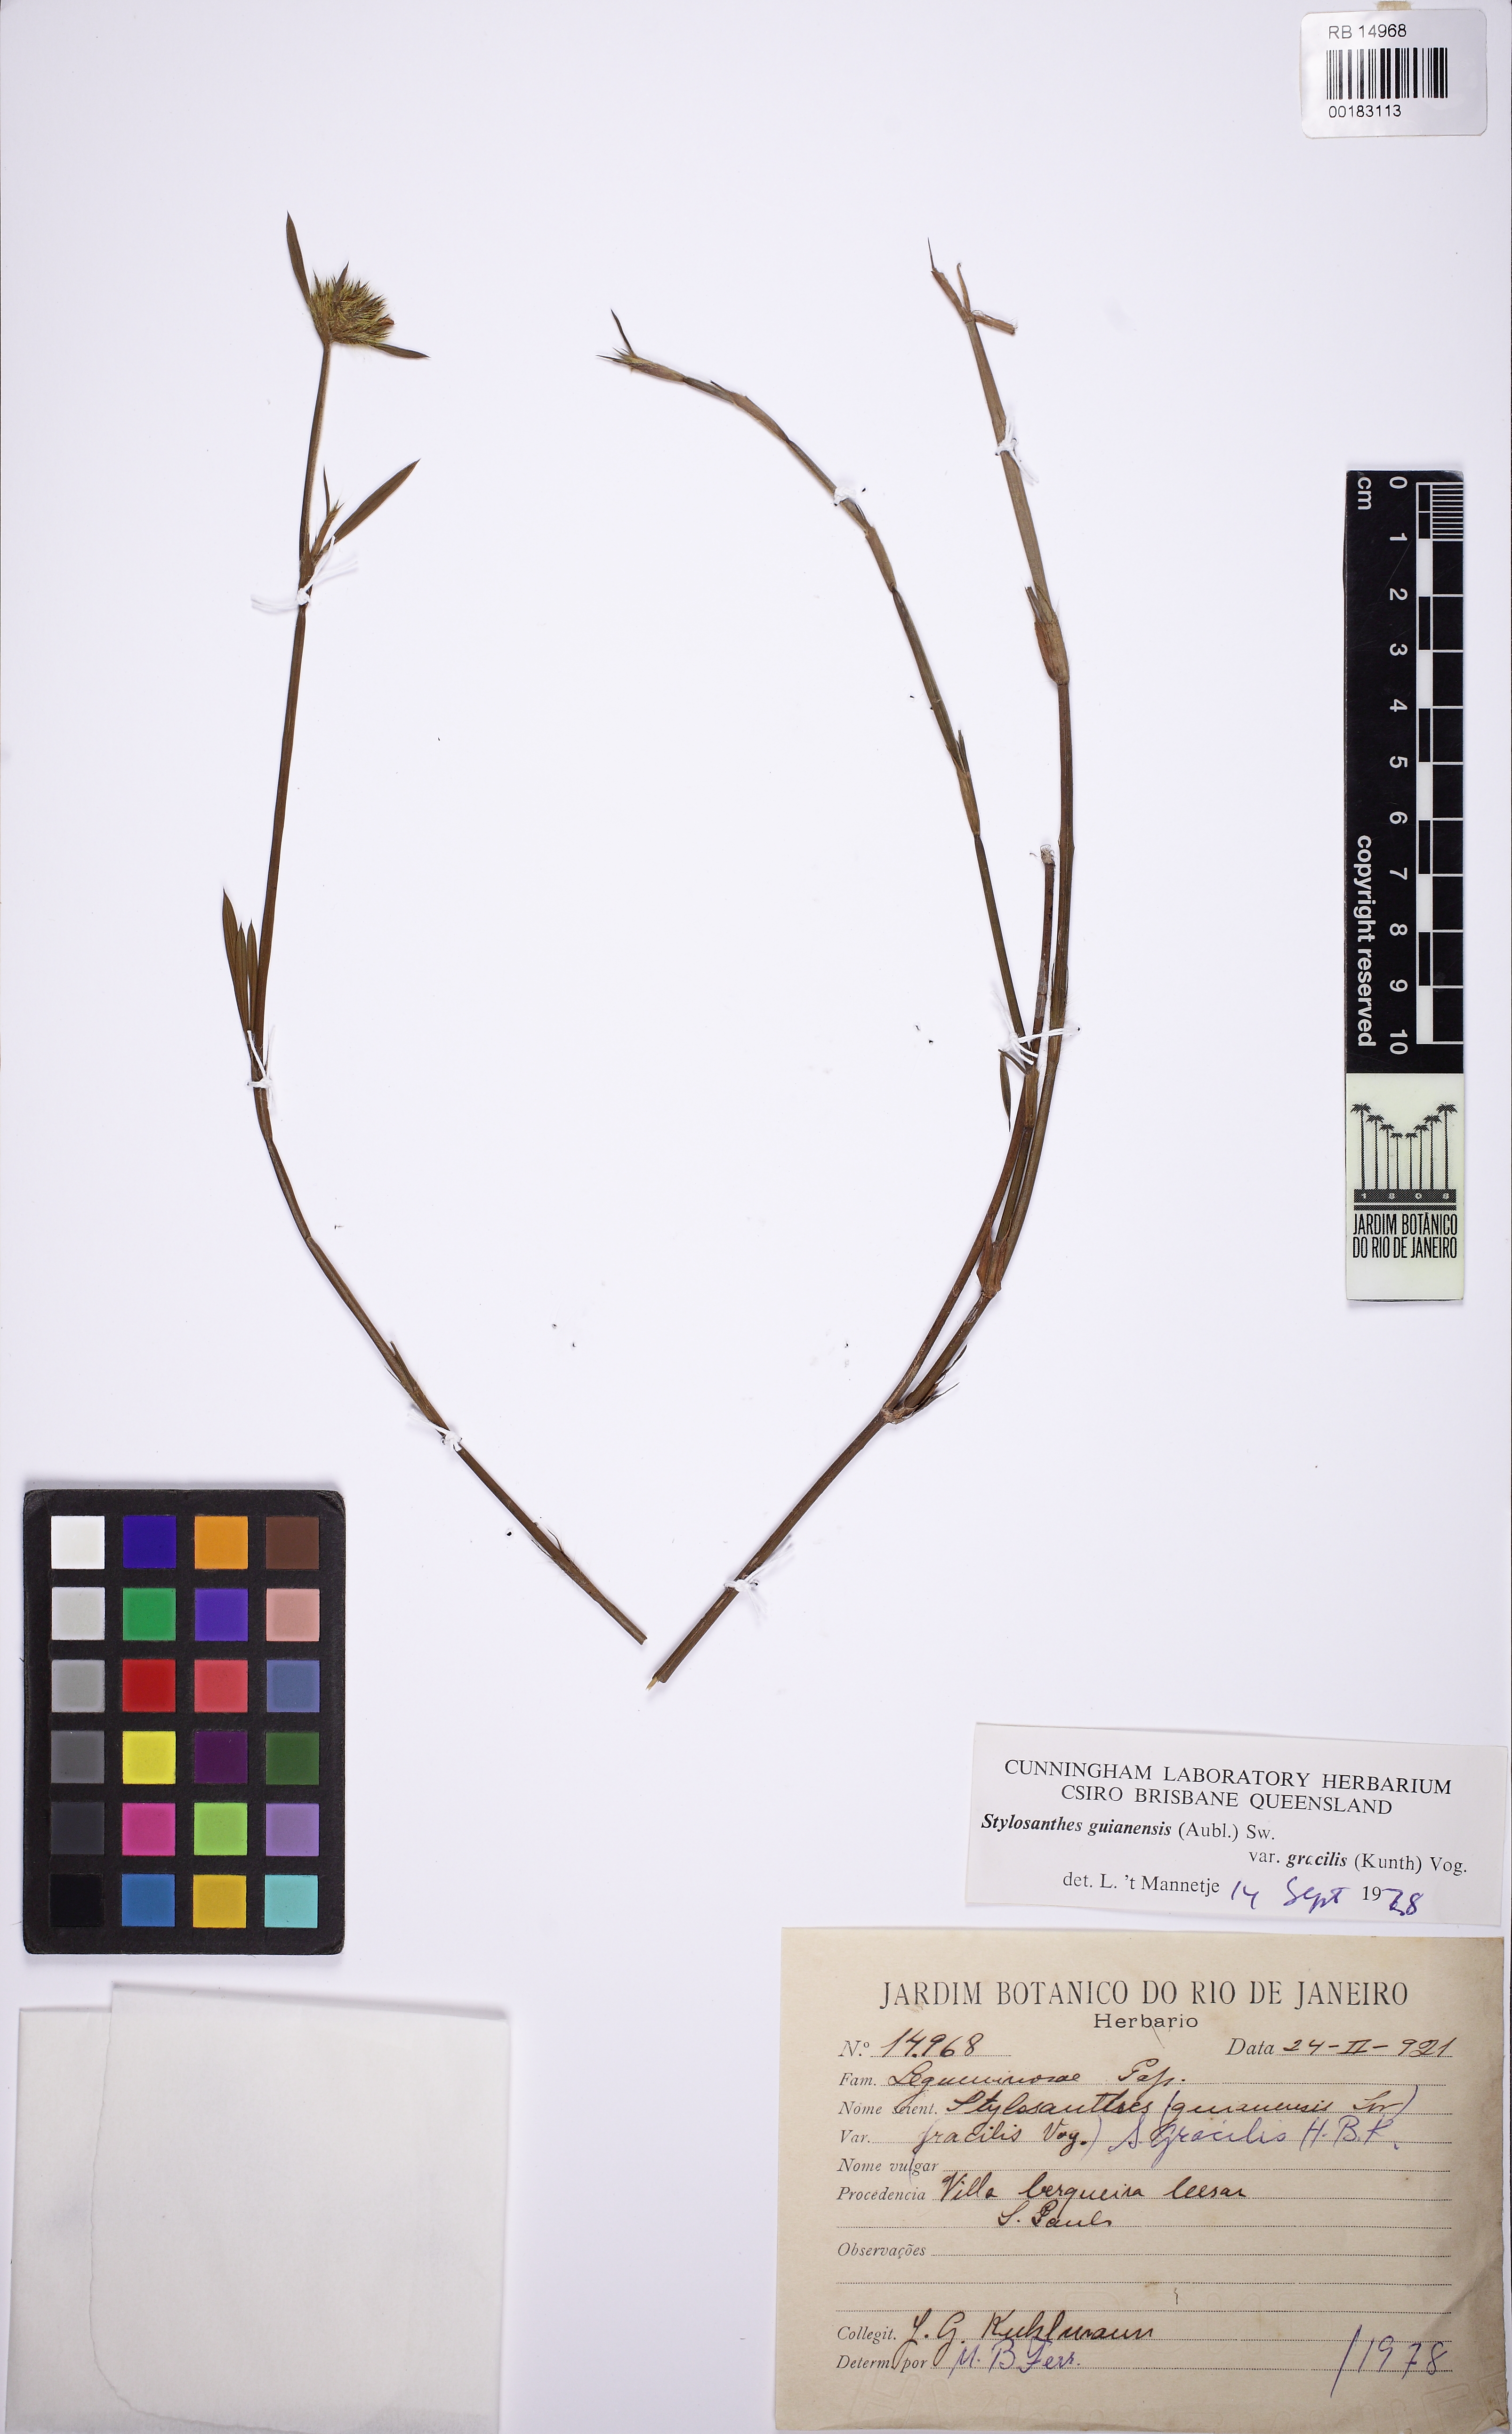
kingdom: Plantae
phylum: Tracheophyta
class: Magnoliopsida
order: Fabales
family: Fabaceae
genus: Stylosanthes
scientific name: Stylosanthes guianensis
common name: Pencil flower
